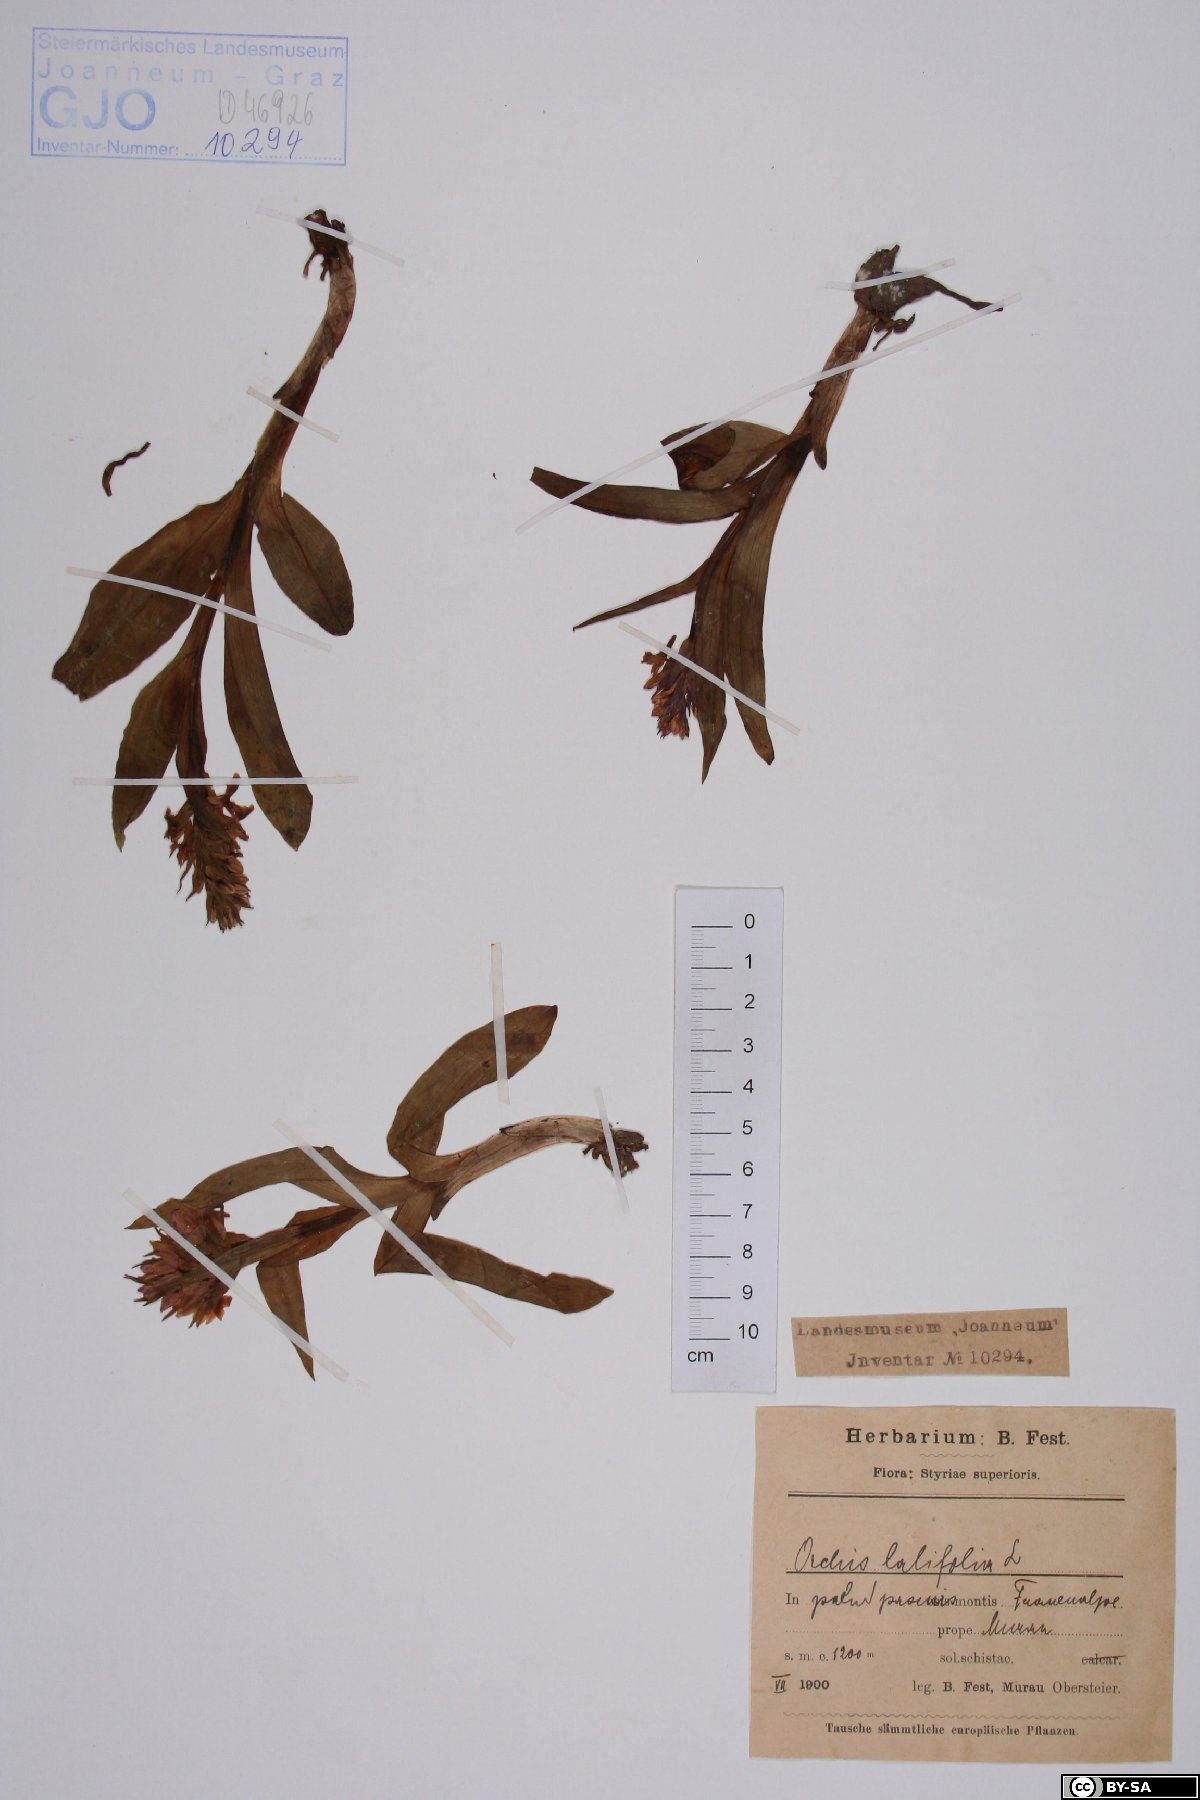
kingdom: Plantae
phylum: Tracheophyta
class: Liliopsida
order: Asparagales
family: Orchidaceae
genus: Dactylorhiza
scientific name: Dactylorhiza incarnata
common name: Early marsh-orchid
